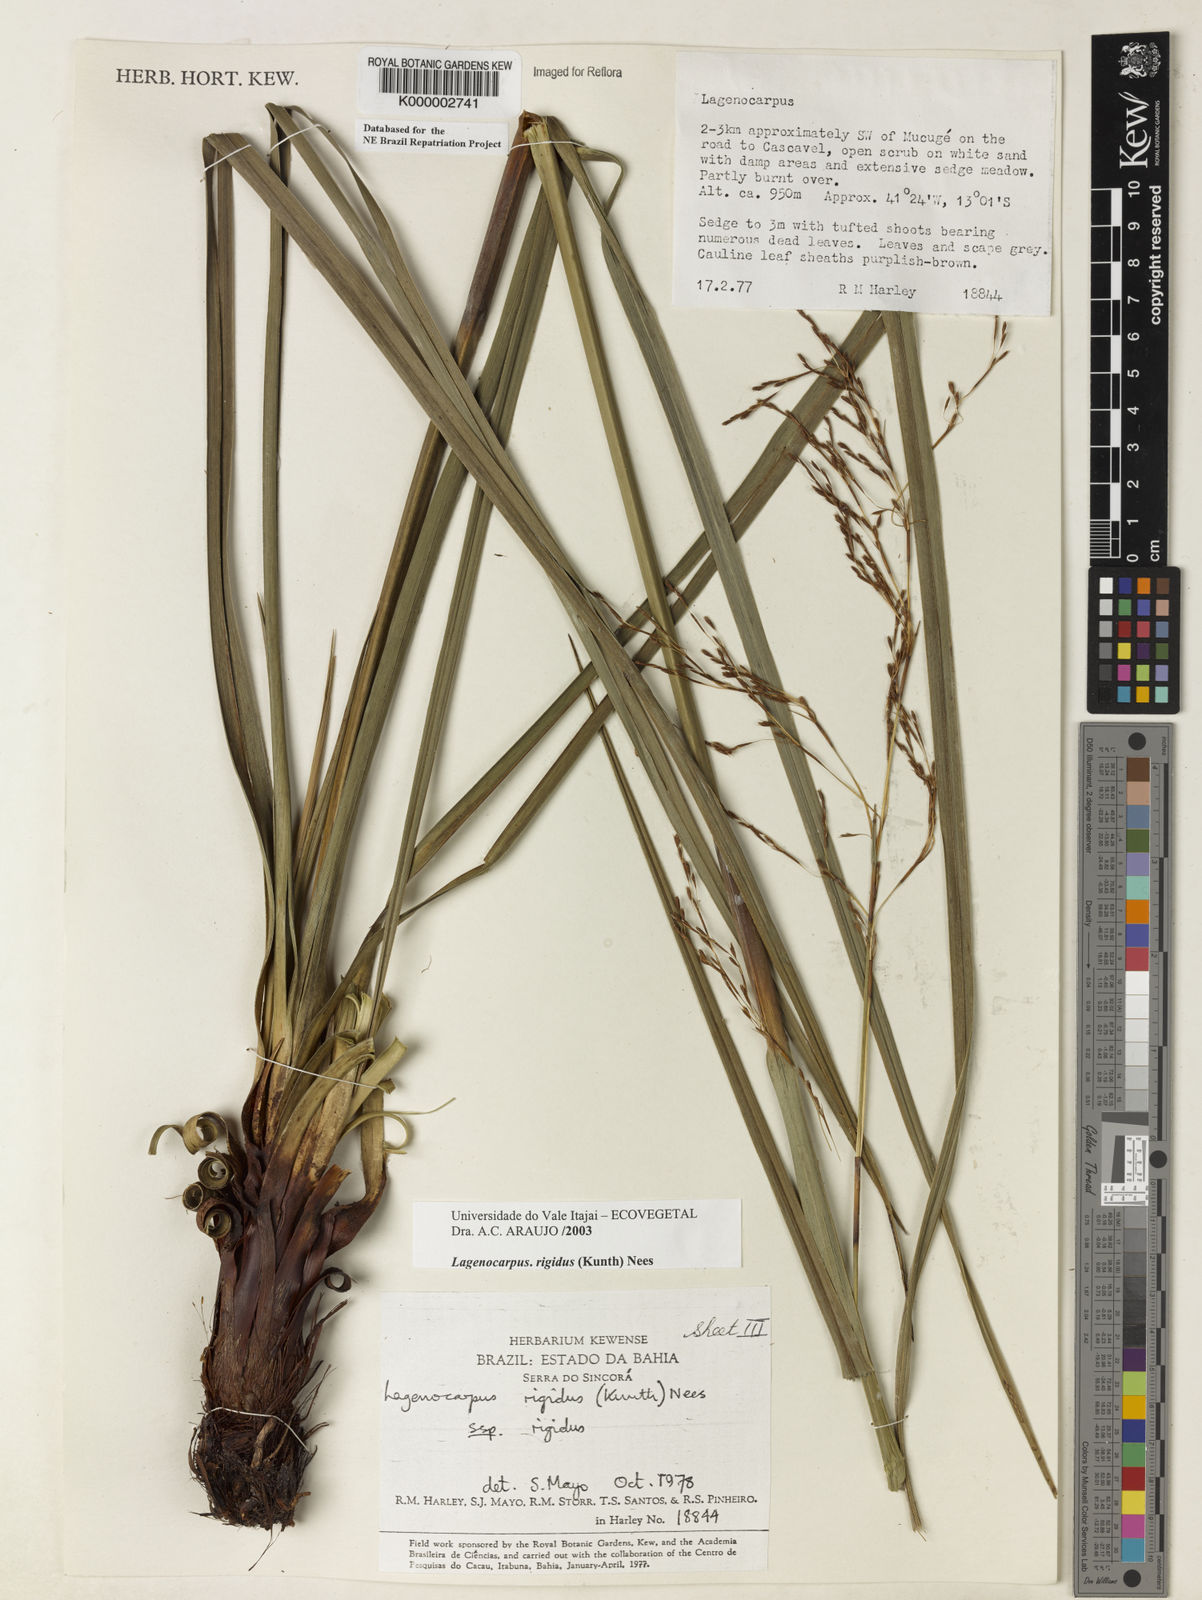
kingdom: Plantae
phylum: Tracheophyta
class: Liliopsida
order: Poales
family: Cyperaceae
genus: Lagenocarpus
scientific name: Lagenocarpus rigidus
